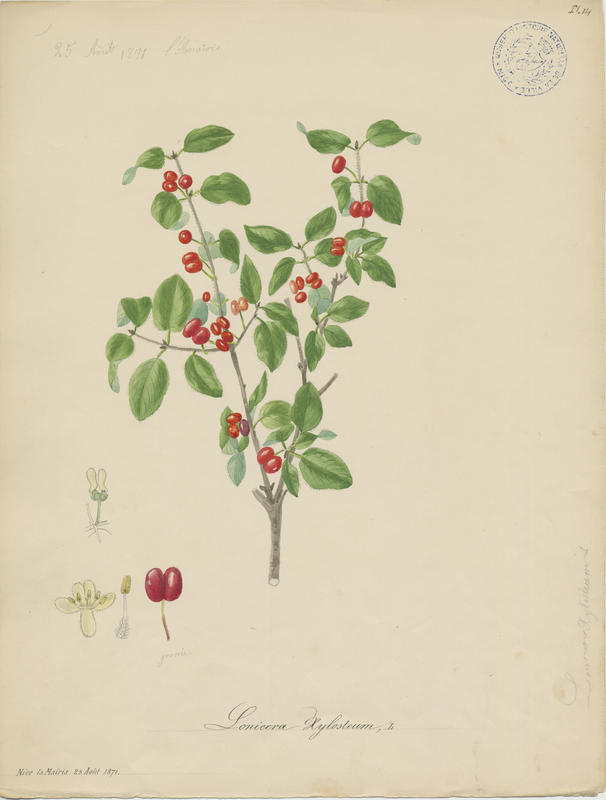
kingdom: Plantae
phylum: Tracheophyta
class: Magnoliopsida
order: Dipsacales
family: Caprifoliaceae
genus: Lonicera
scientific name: Lonicera xylosteum
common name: Fly honeysuckle
